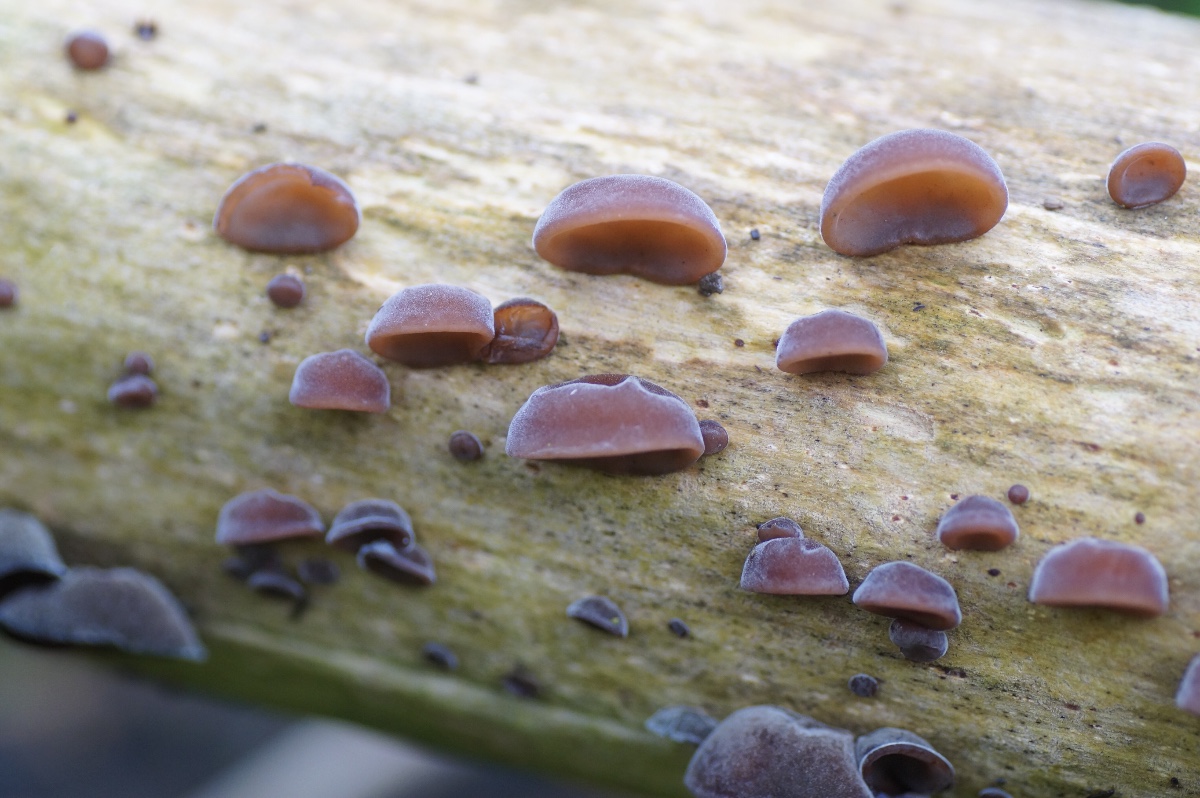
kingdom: Fungi
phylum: Basidiomycota
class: Agaricomycetes
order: Auriculariales
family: Auriculariaceae
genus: Auricularia
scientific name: Auricularia auricula-judae
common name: almindelig judasøre
